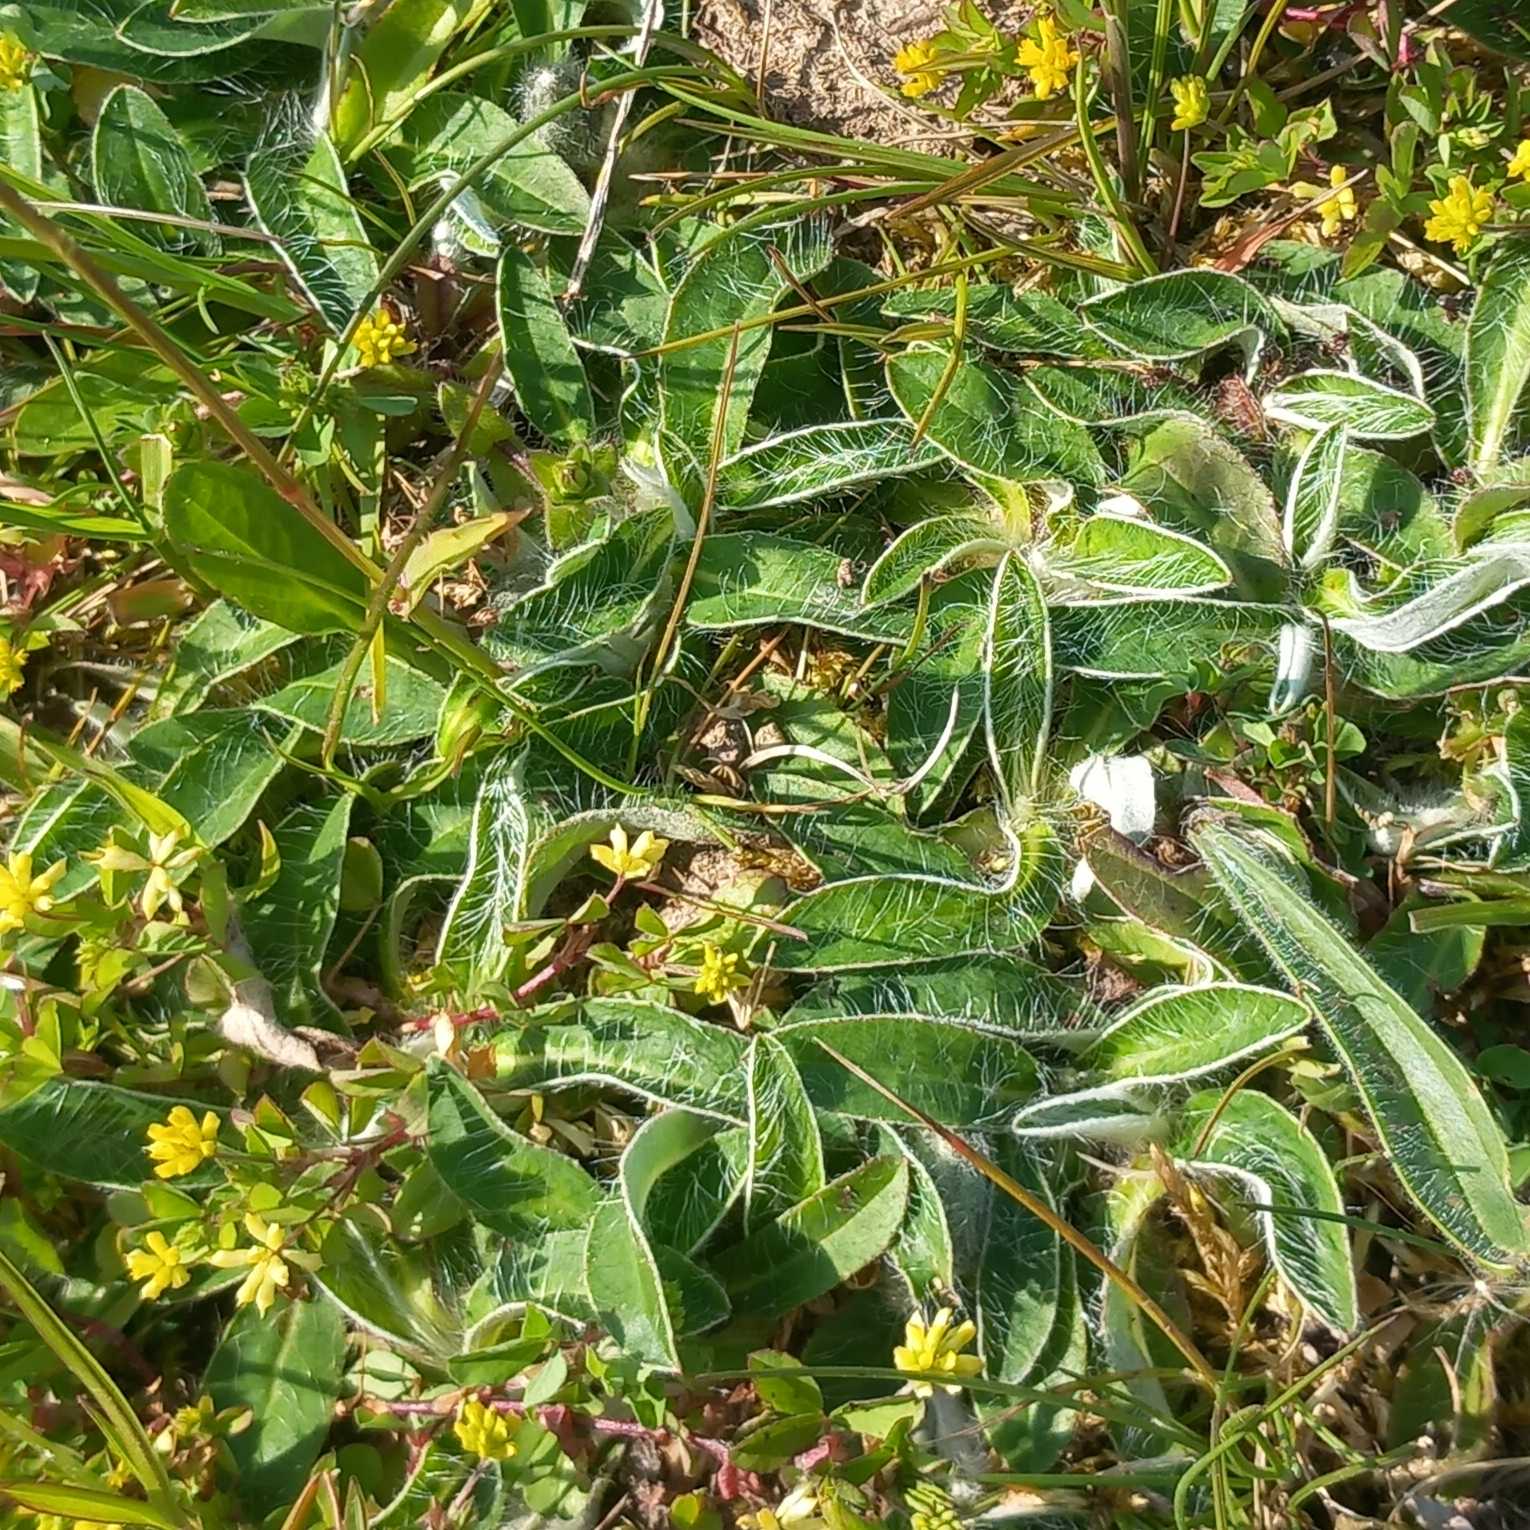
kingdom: Plantae
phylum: Tracheophyta
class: Magnoliopsida
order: Asterales
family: Asteraceae
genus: Pilosella
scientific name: Pilosella officinarum
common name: Håret høgeurt
